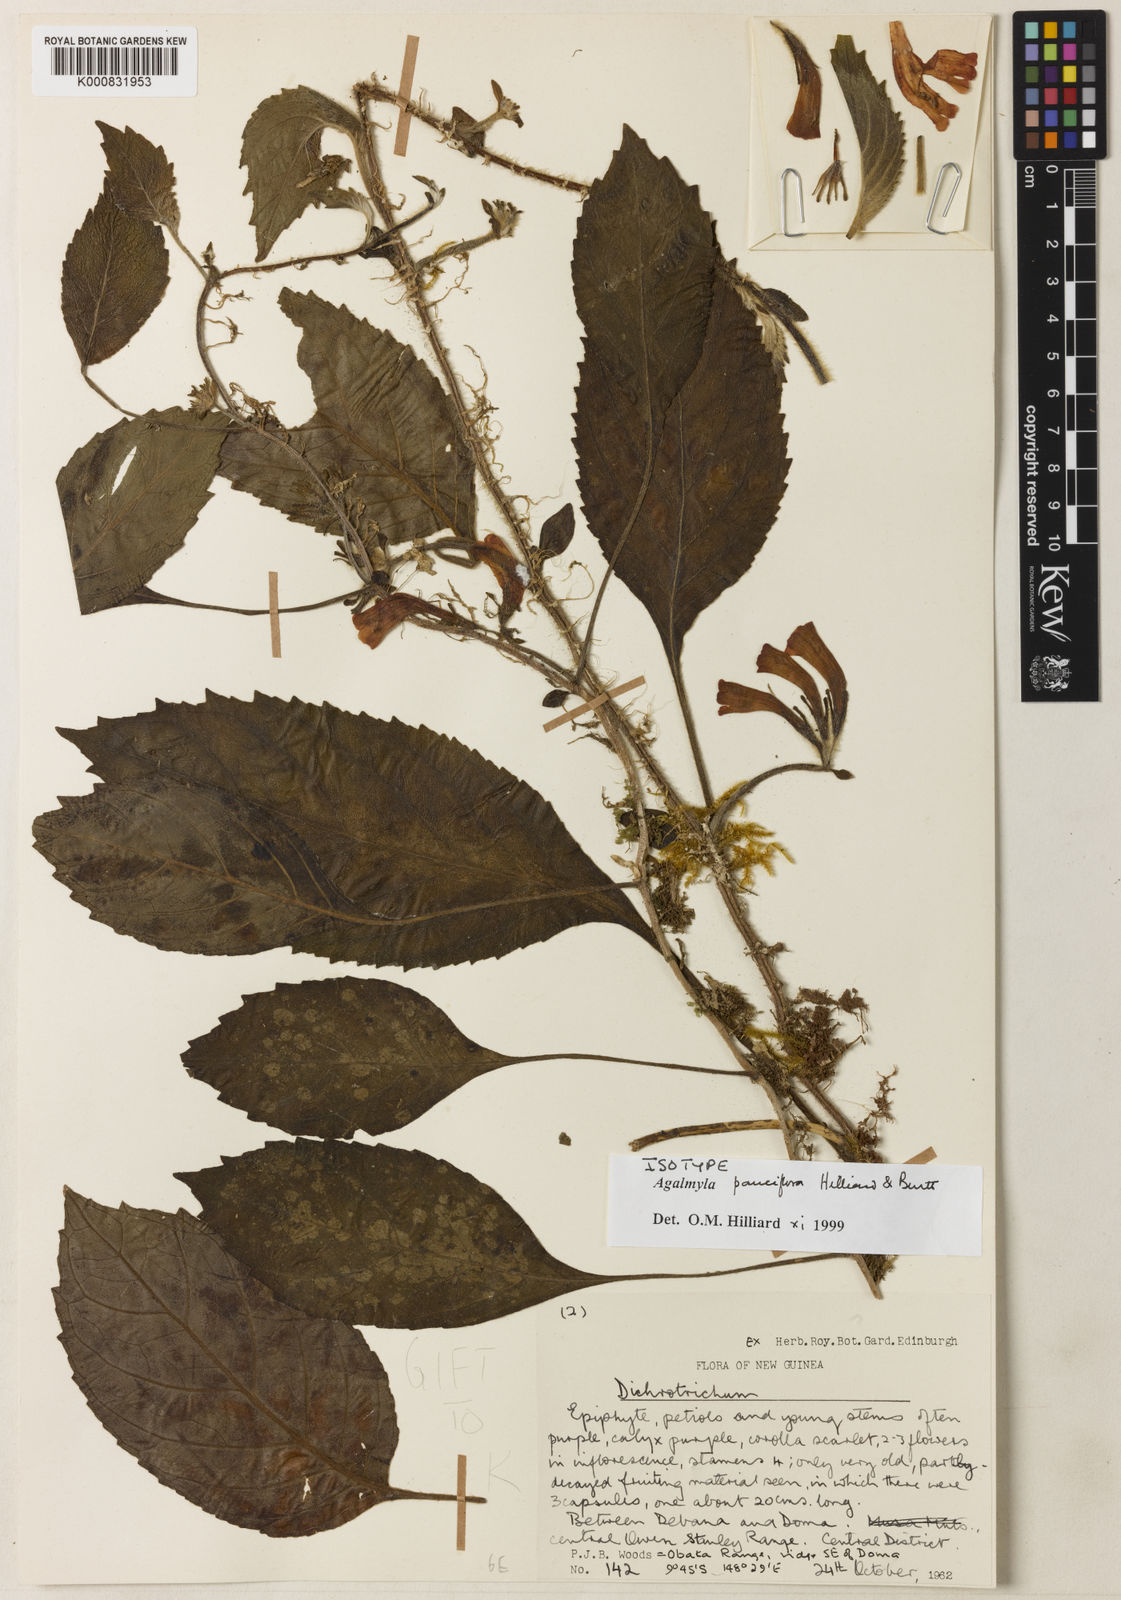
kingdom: Plantae
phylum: Tracheophyta
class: Magnoliopsida
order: Lamiales
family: Gesneriaceae
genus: Agalmyla
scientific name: Agalmyla pauciflora
